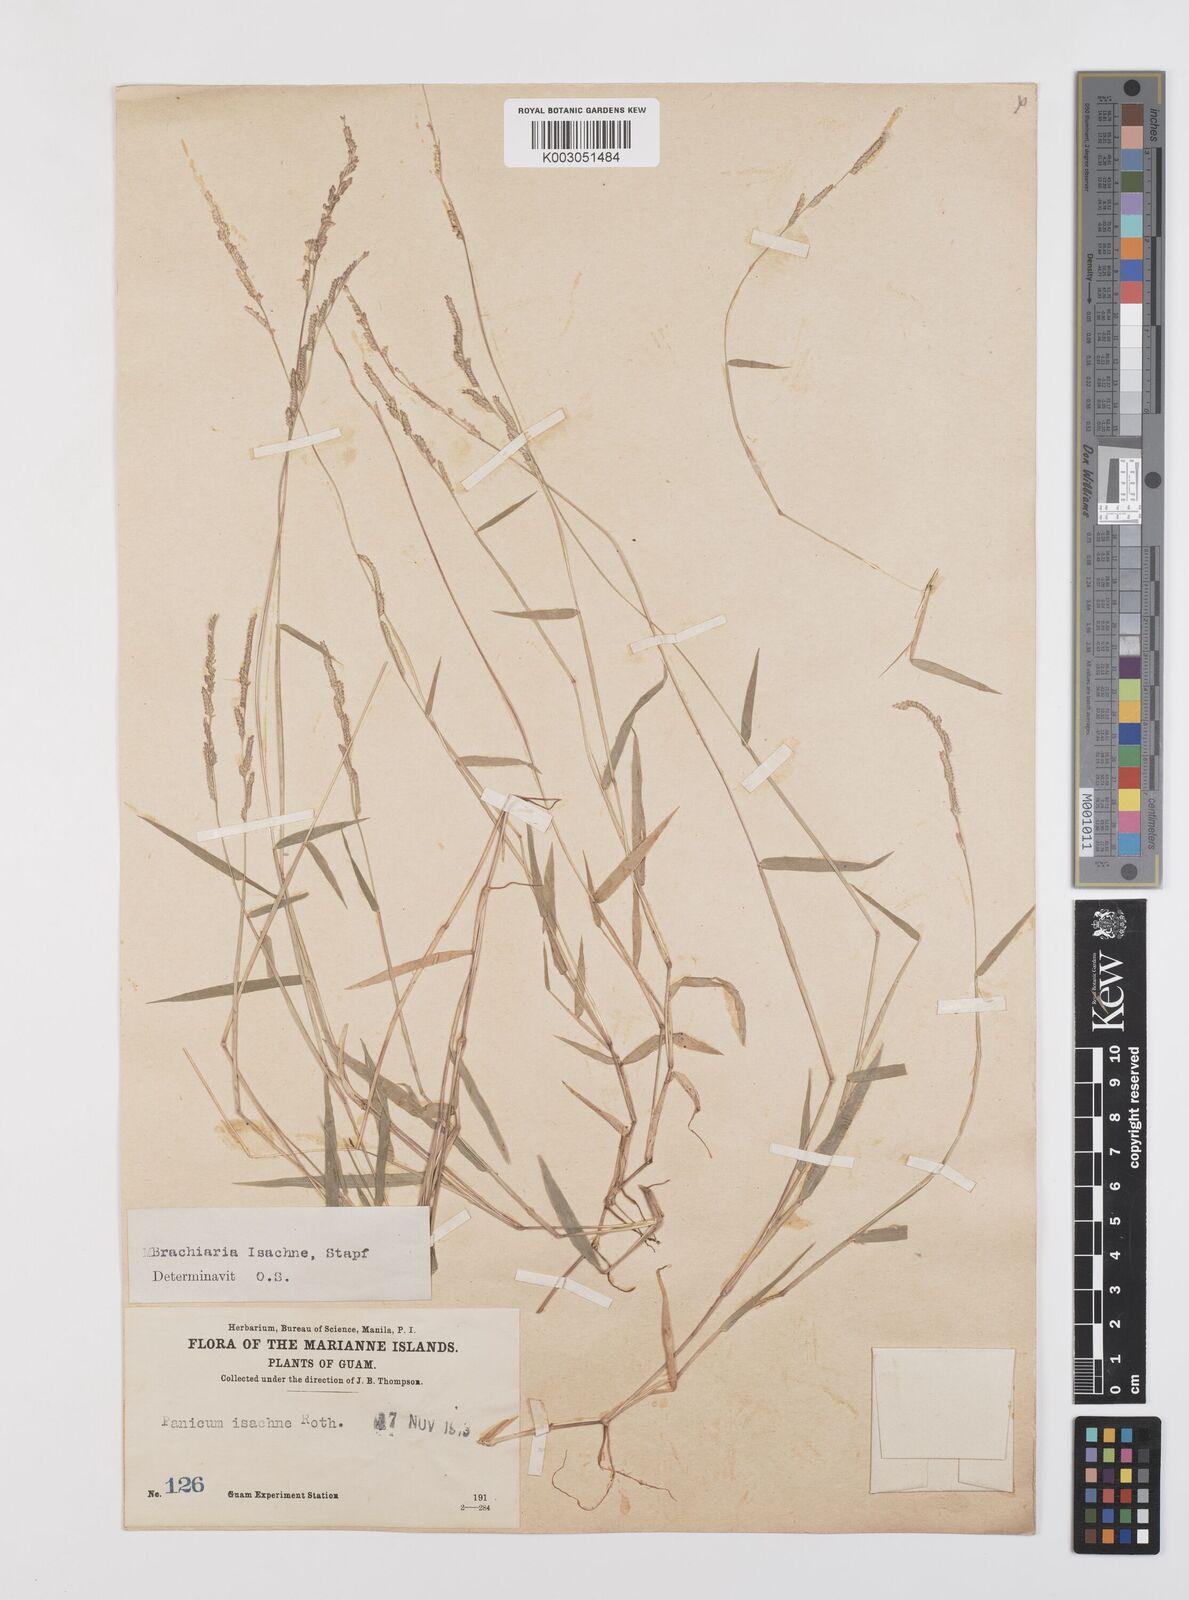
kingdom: Plantae
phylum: Tracheophyta
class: Liliopsida
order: Poales
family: Poaceae
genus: Moorochloa
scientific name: Moorochloa eruciformis
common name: Sweet signalgrass
